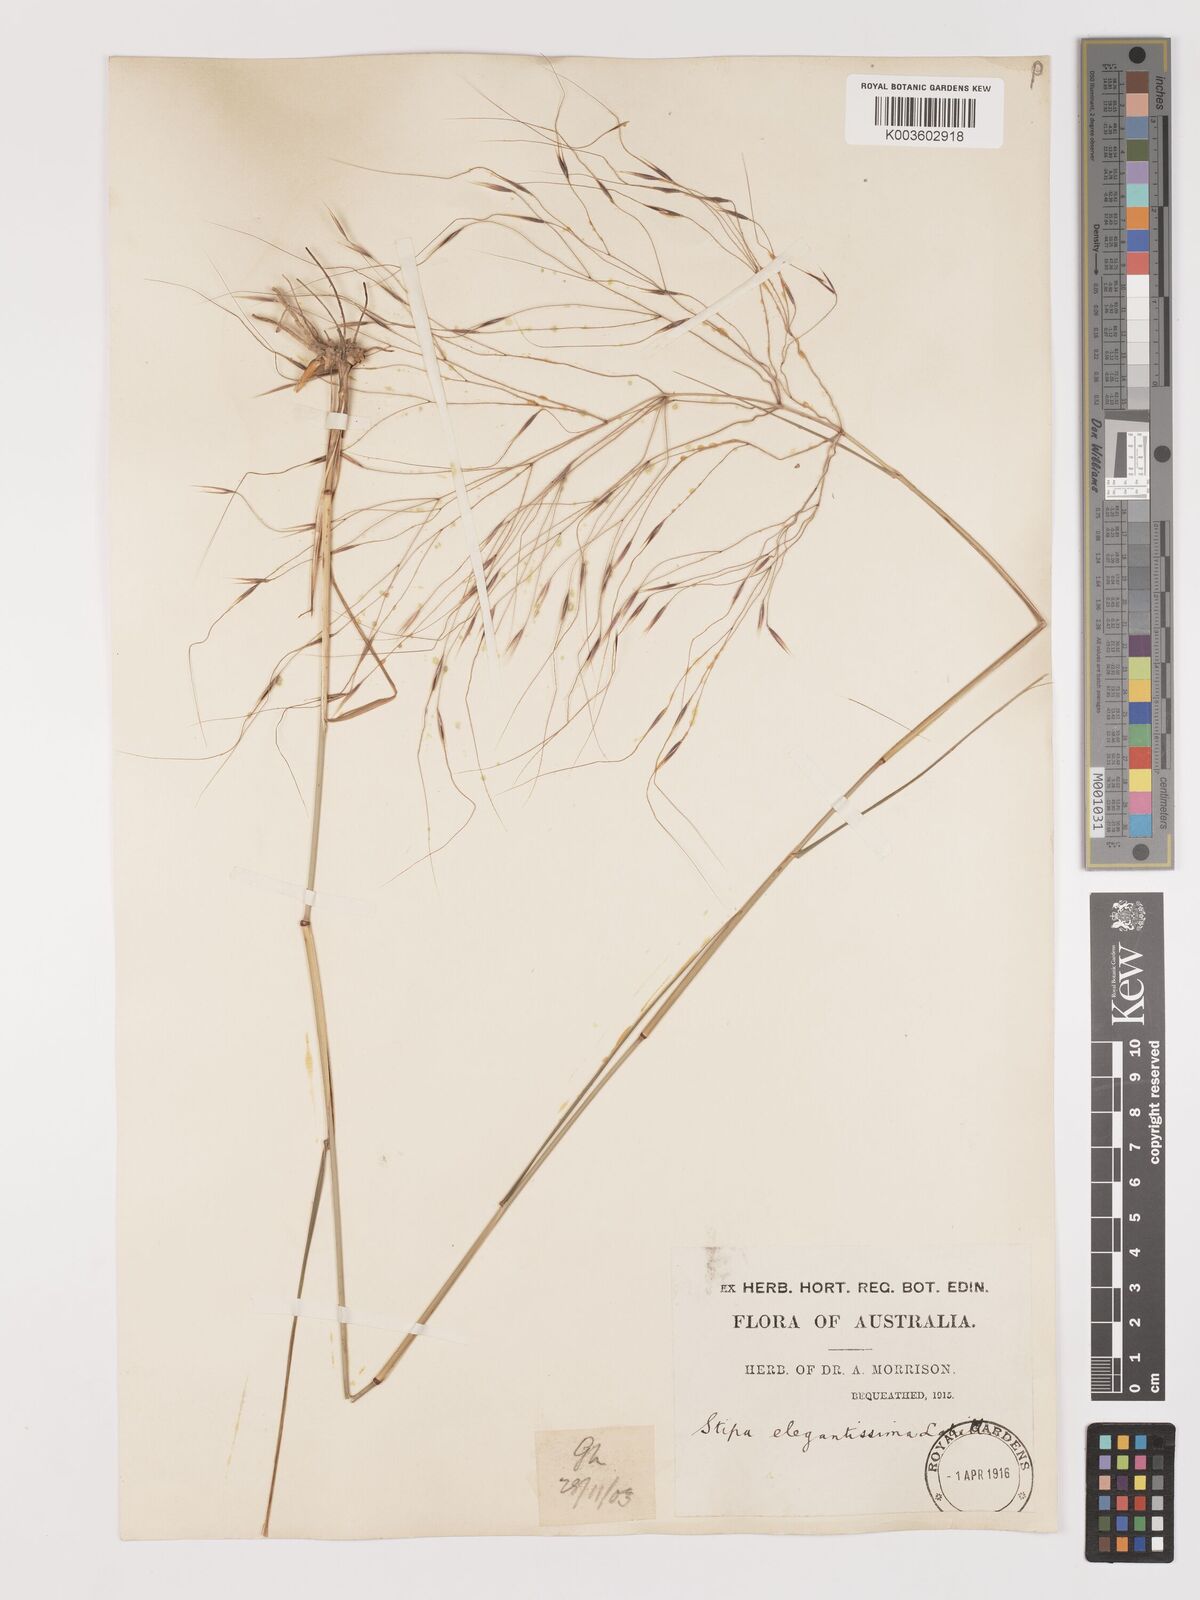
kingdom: Plantae
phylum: Tracheophyta
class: Liliopsida
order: Poales
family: Poaceae
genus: Austrostipa
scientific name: Austrostipa elegantissima
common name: Feather spear grass
